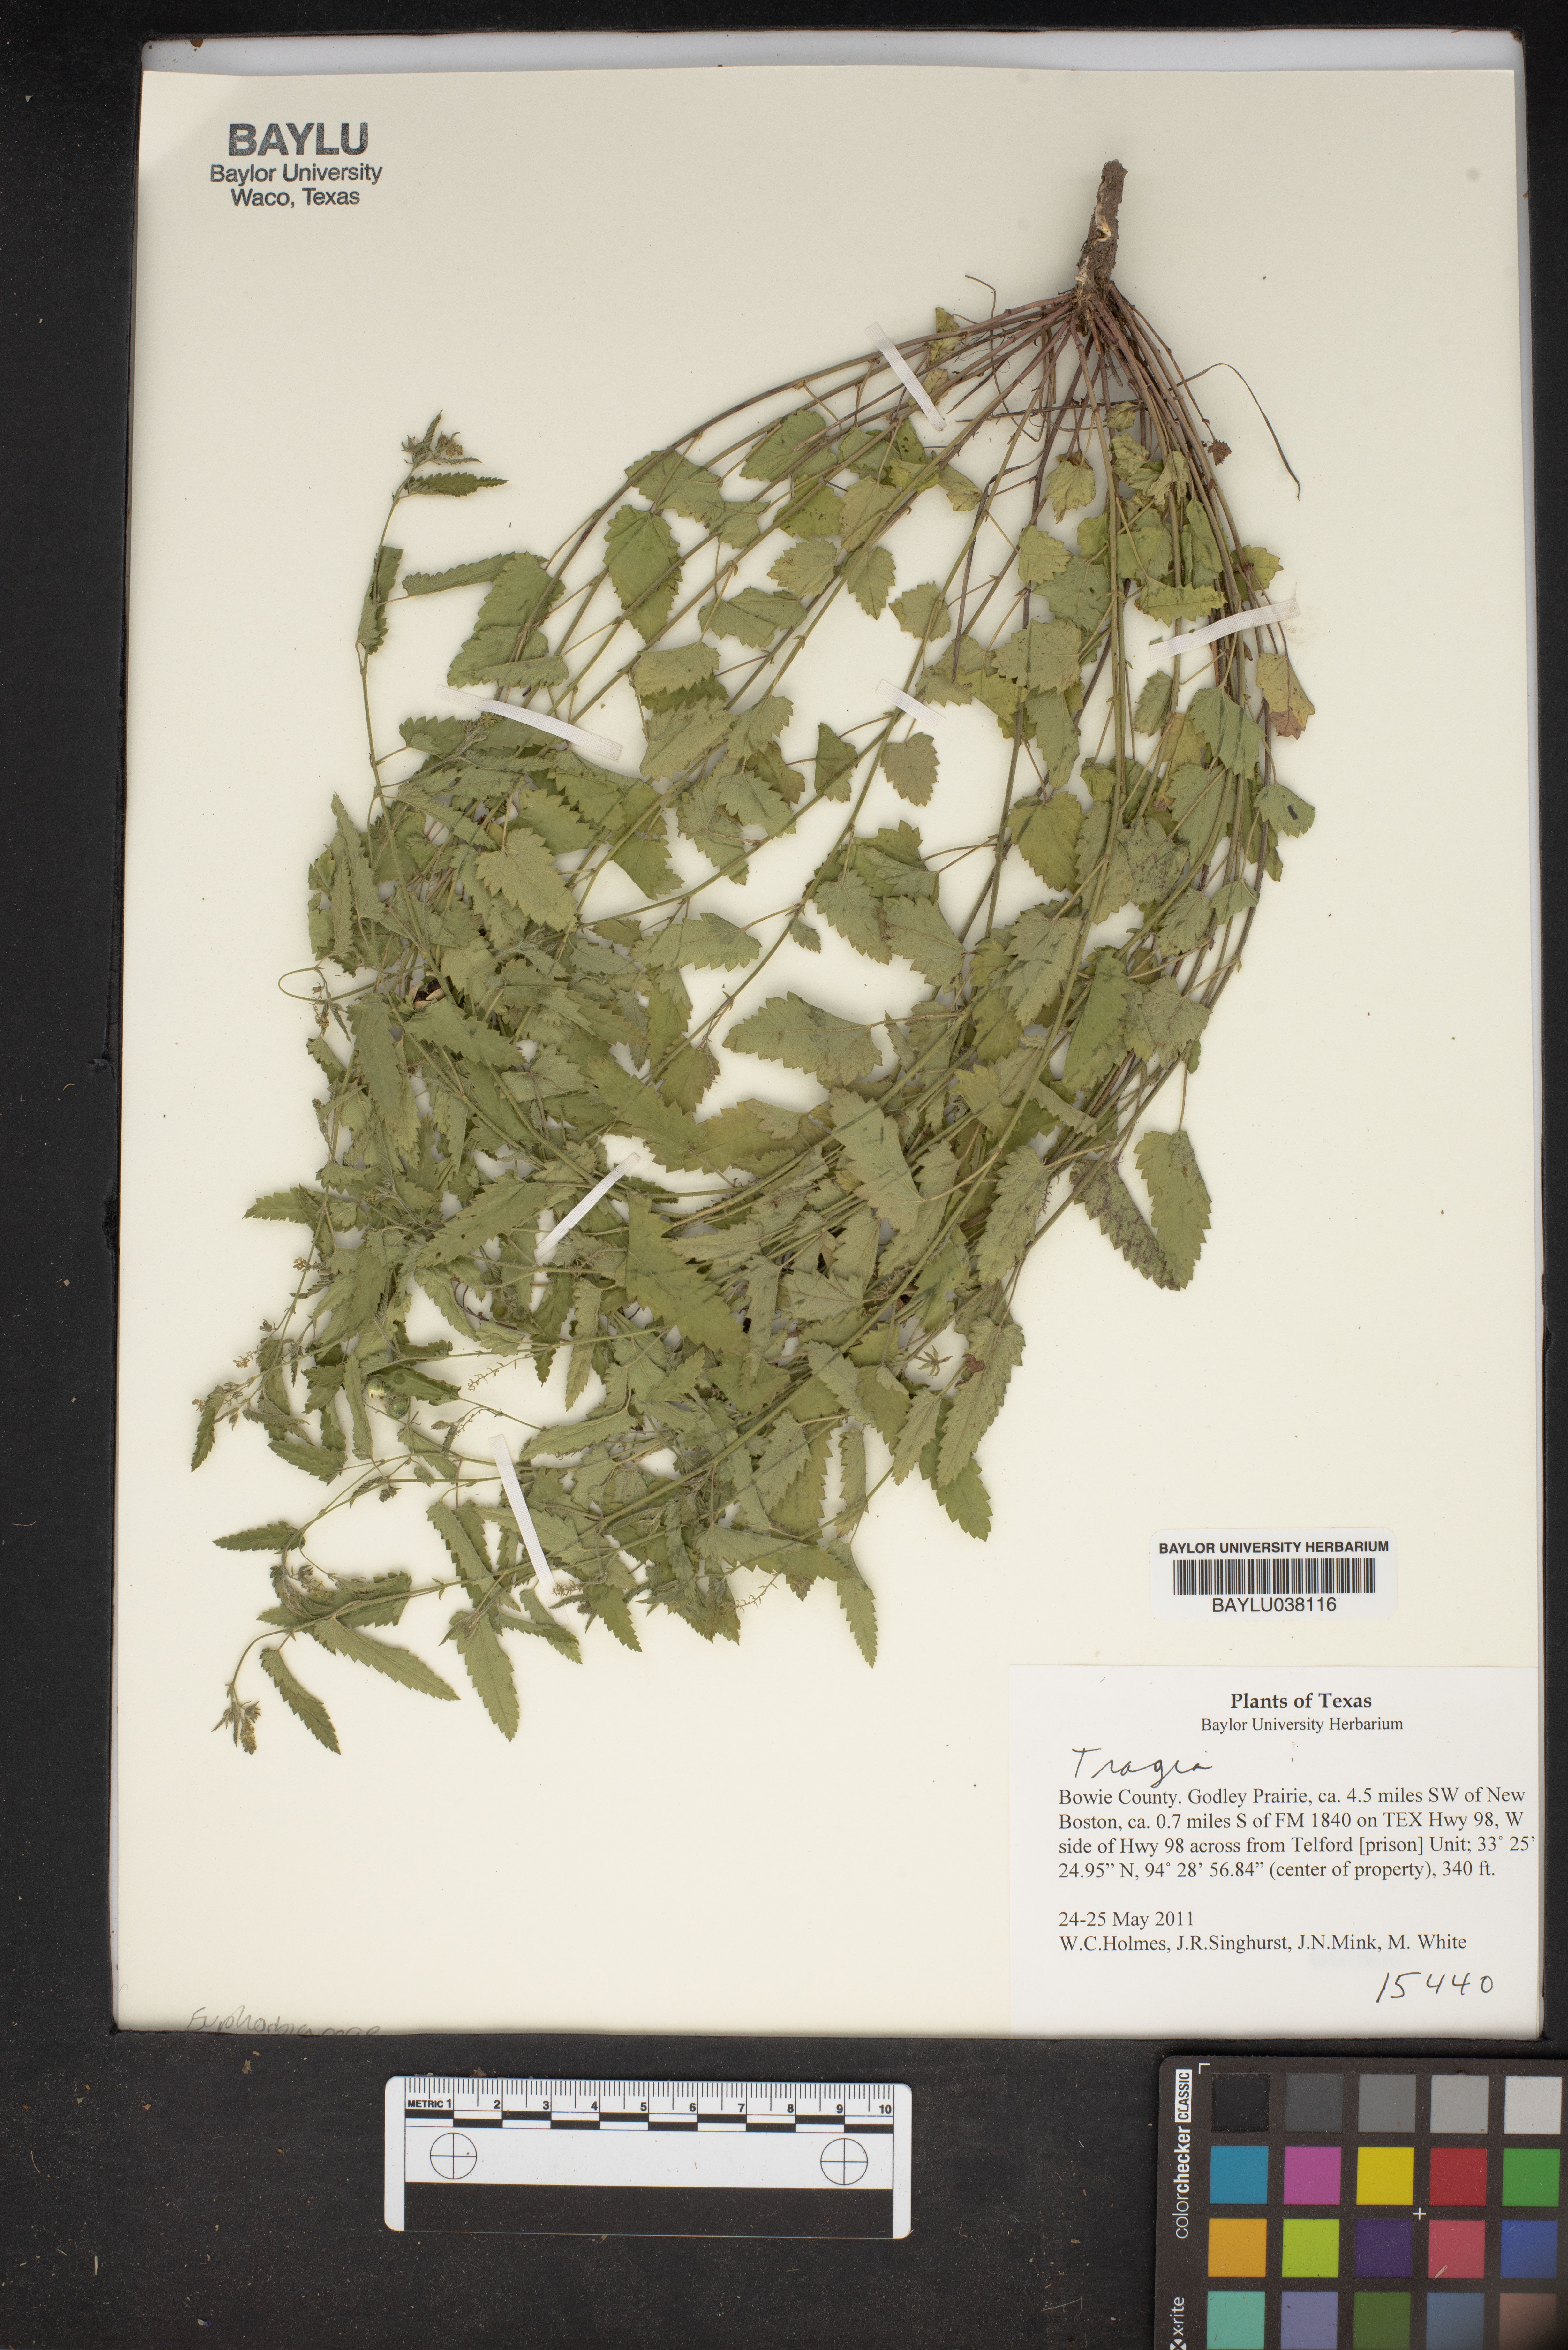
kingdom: Plantae
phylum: Tracheophyta
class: Magnoliopsida
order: Malpighiales
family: Euphorbiaceae
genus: Tragia
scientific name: Tragia
